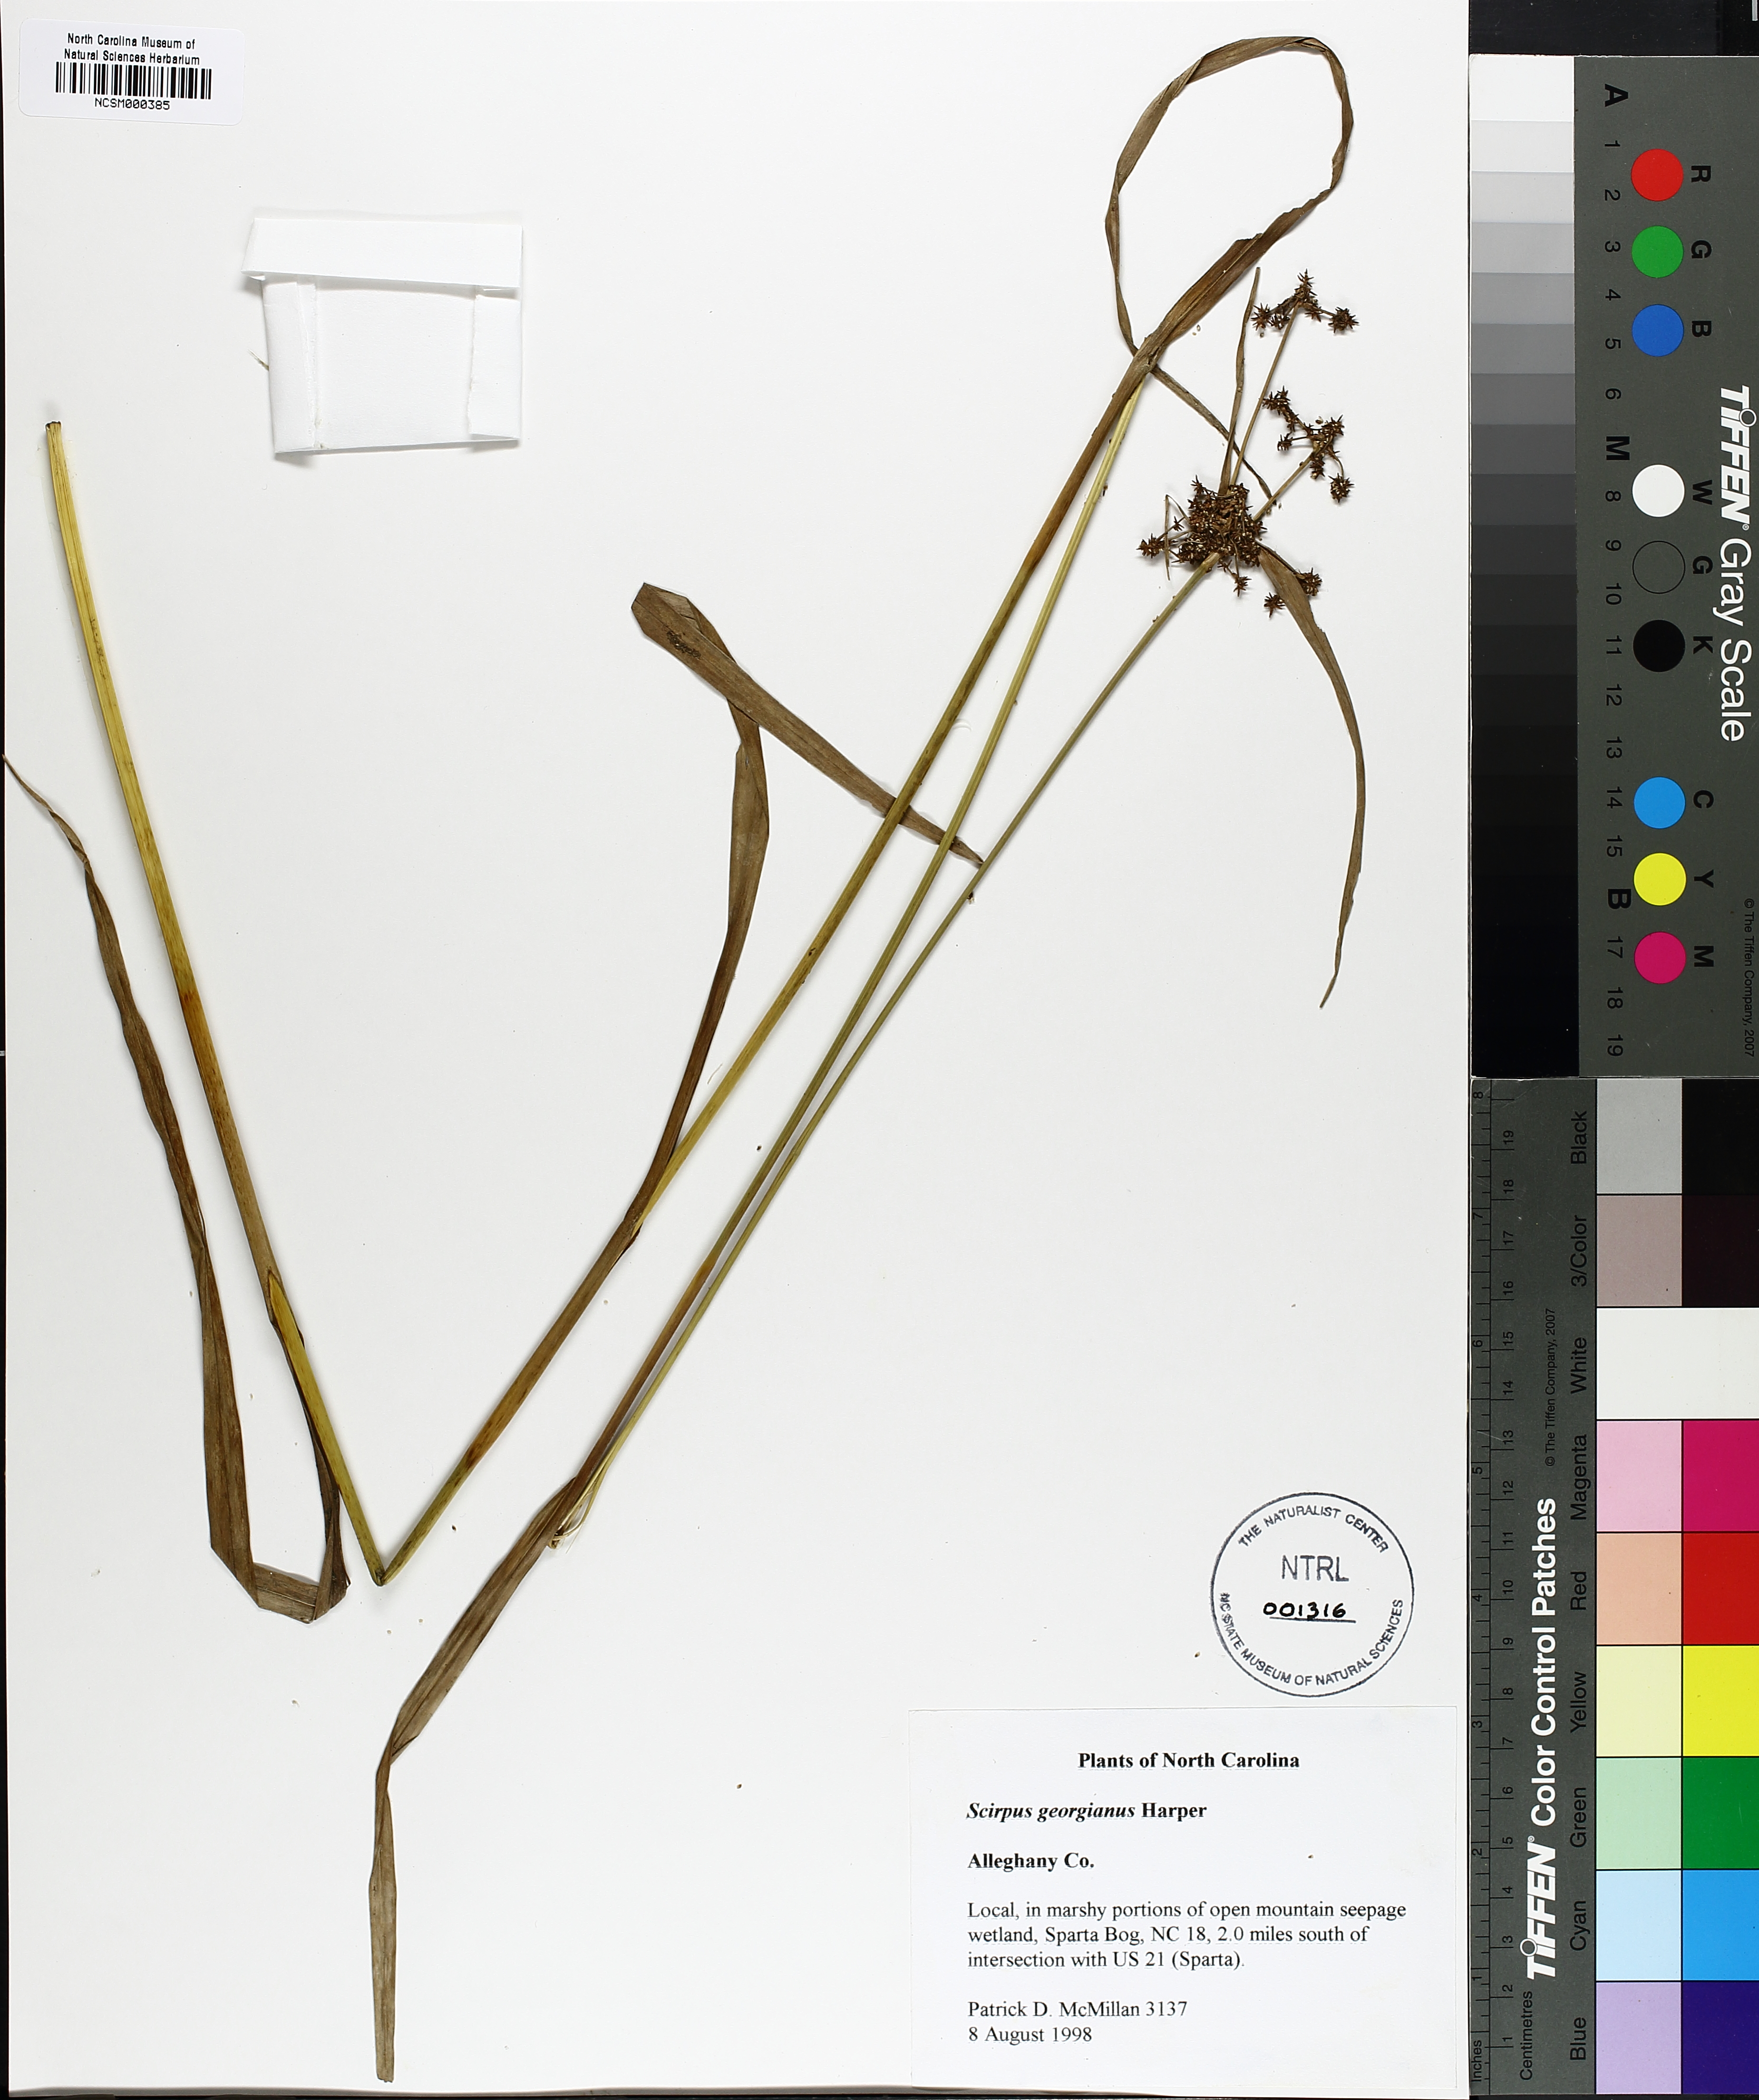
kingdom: Plantae
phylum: Tracheophyta
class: Liliopsida
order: Poales
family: Cyperaceae
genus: Scirpus
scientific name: Scirpus georgianus
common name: Bristleless dark-green bulrush
